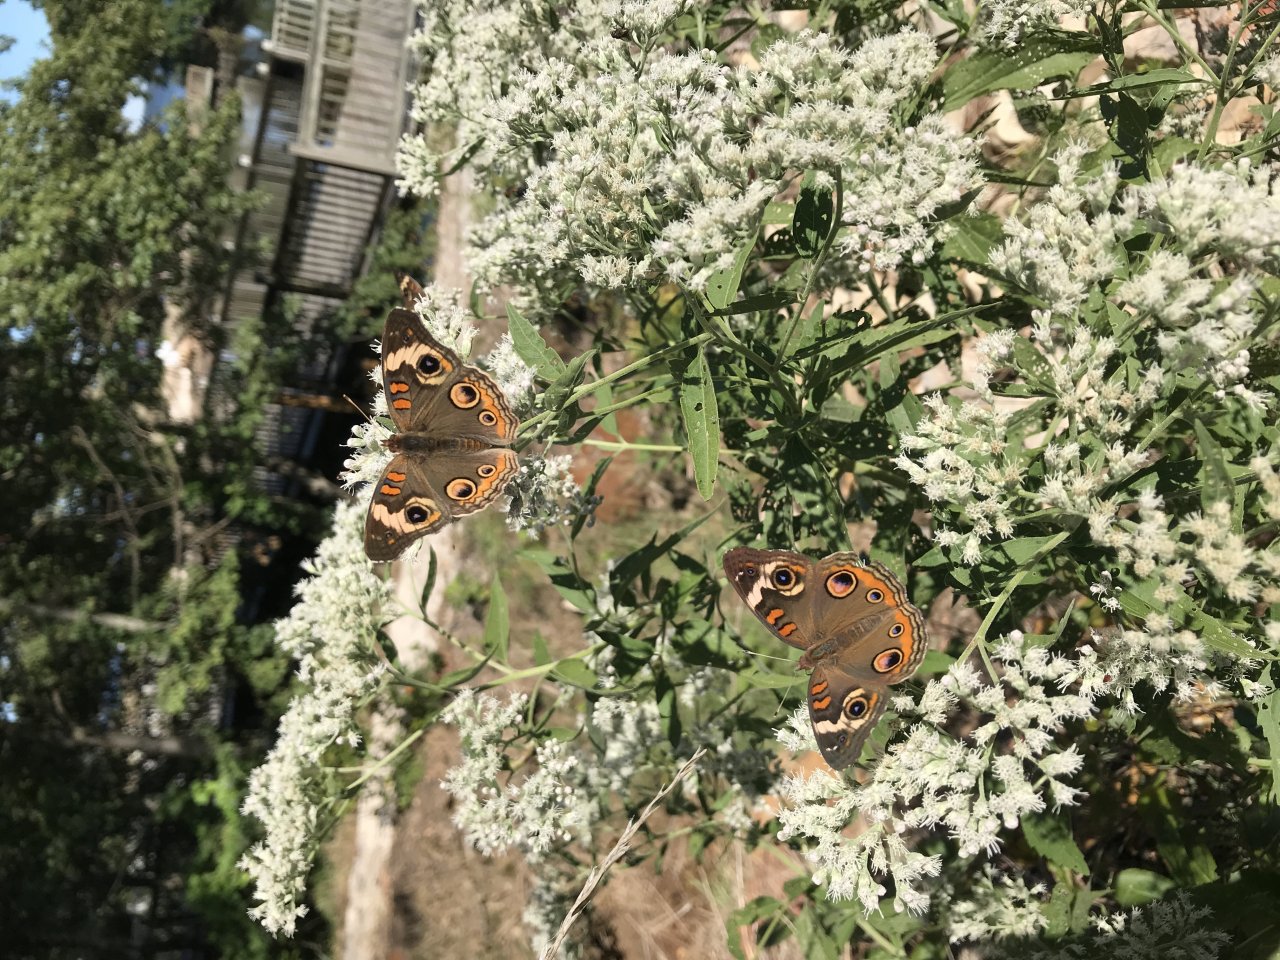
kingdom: Animalia
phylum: Arthropoda
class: Insecta
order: Lepidoptera
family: Nymphalidae
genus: Junonia
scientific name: Junonia coenia
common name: Common Buckeye
